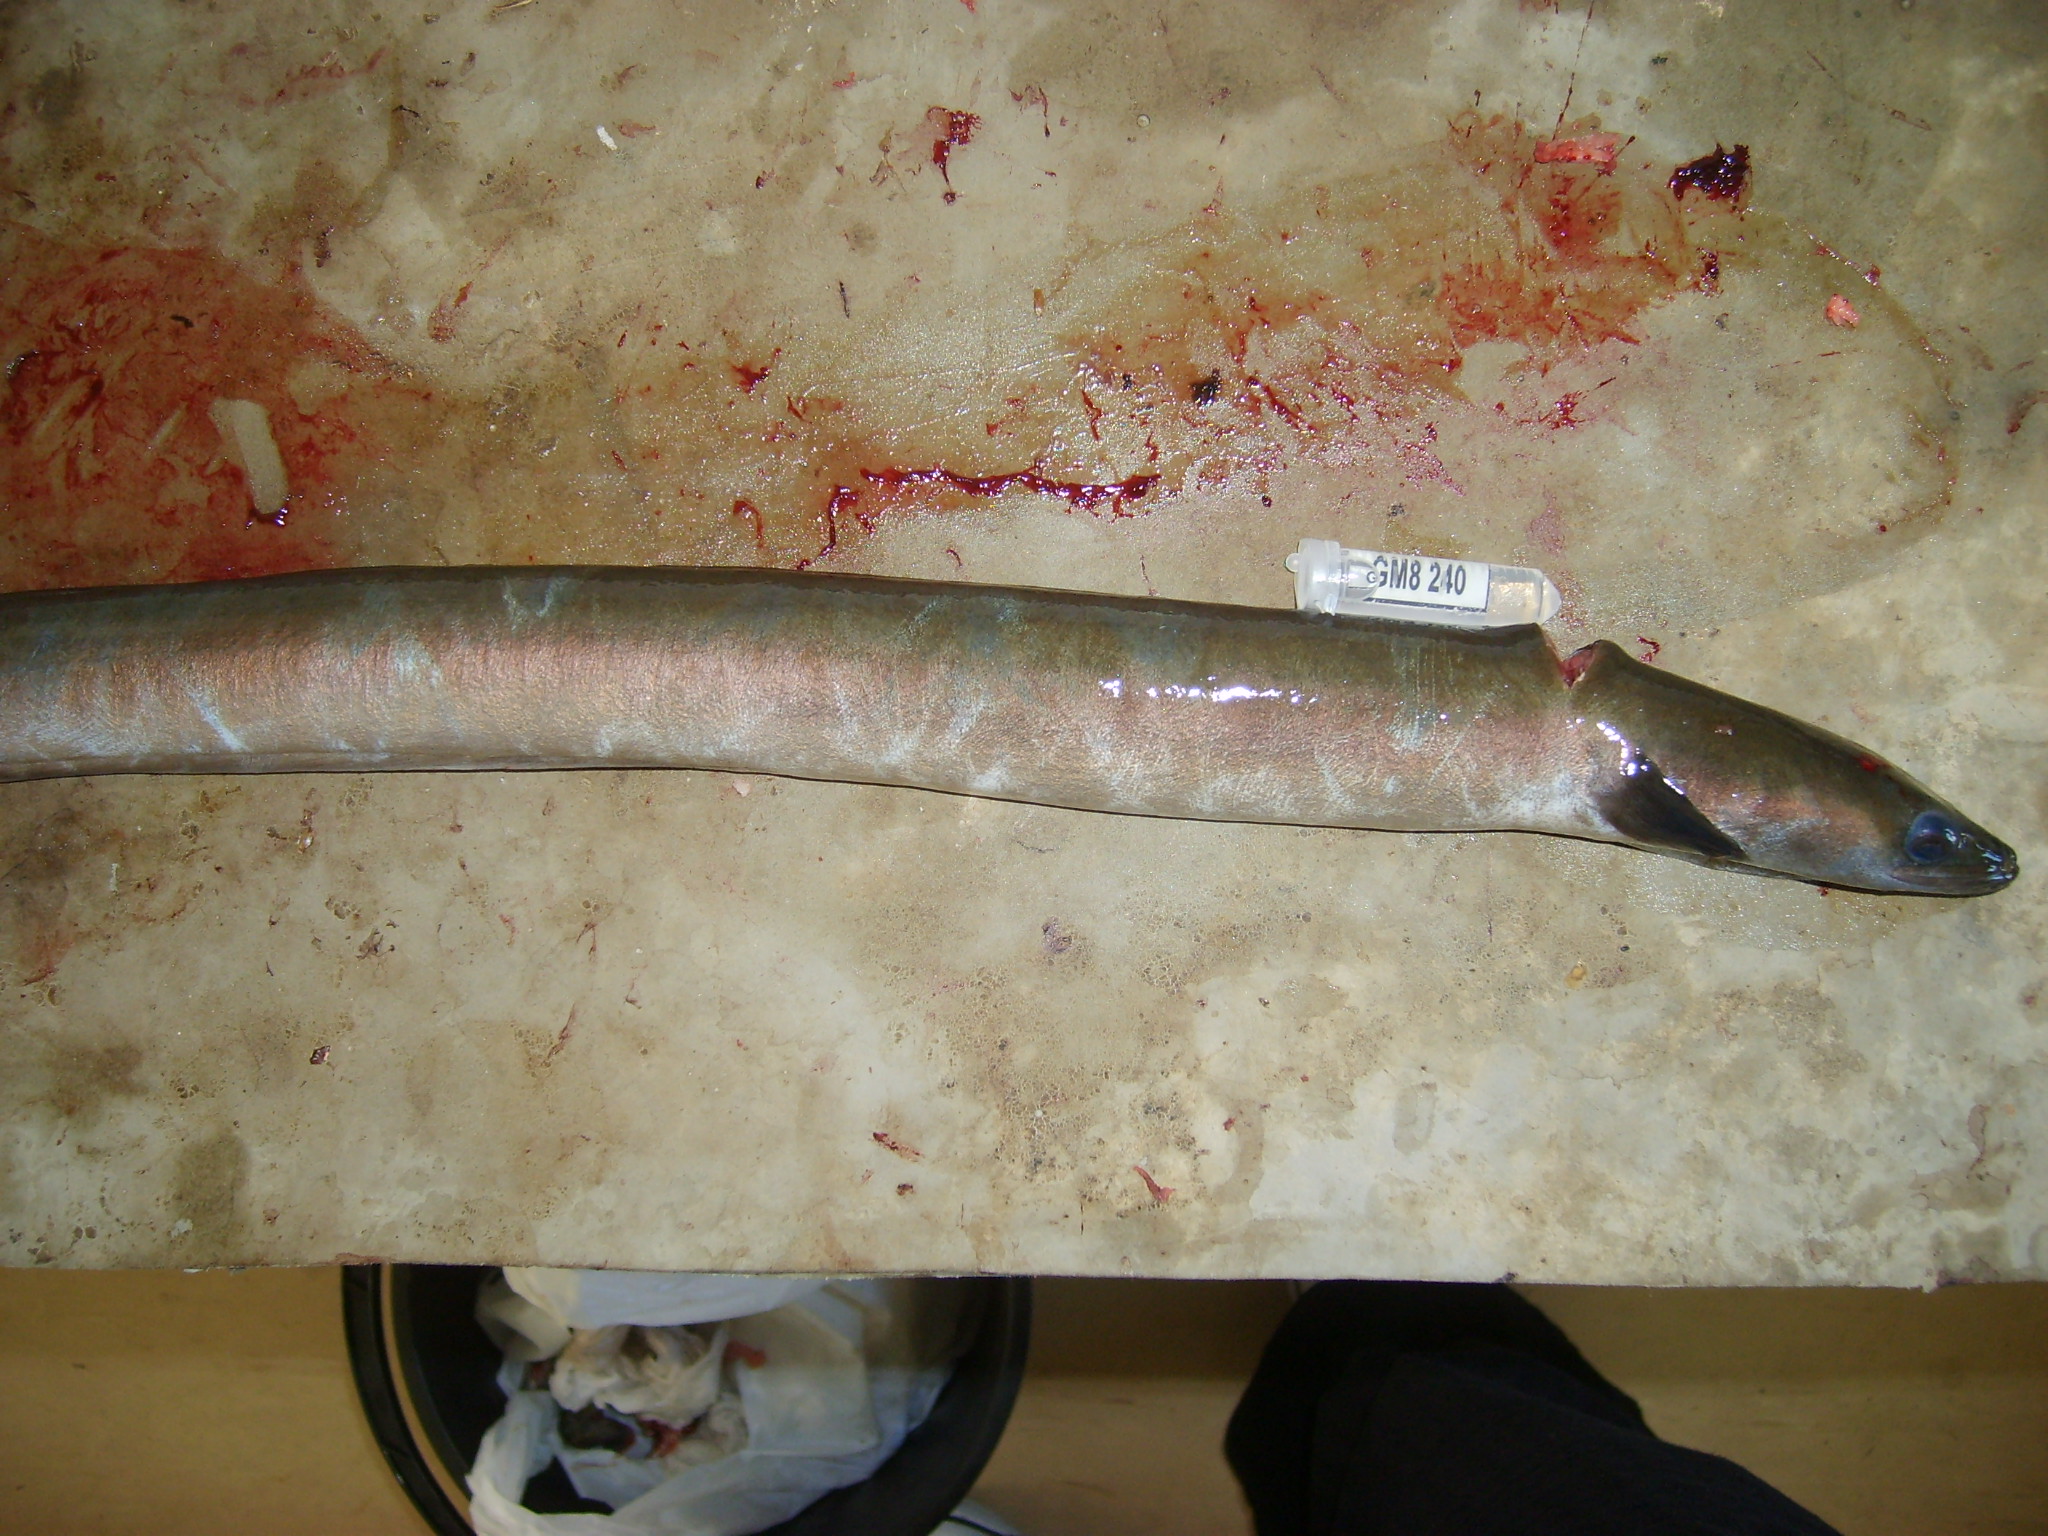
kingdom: Animalia
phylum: Chordata
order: Anguilliformes
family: Anguillidae
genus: Anguilla
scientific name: Anguilla mossambica
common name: African longfin eel
